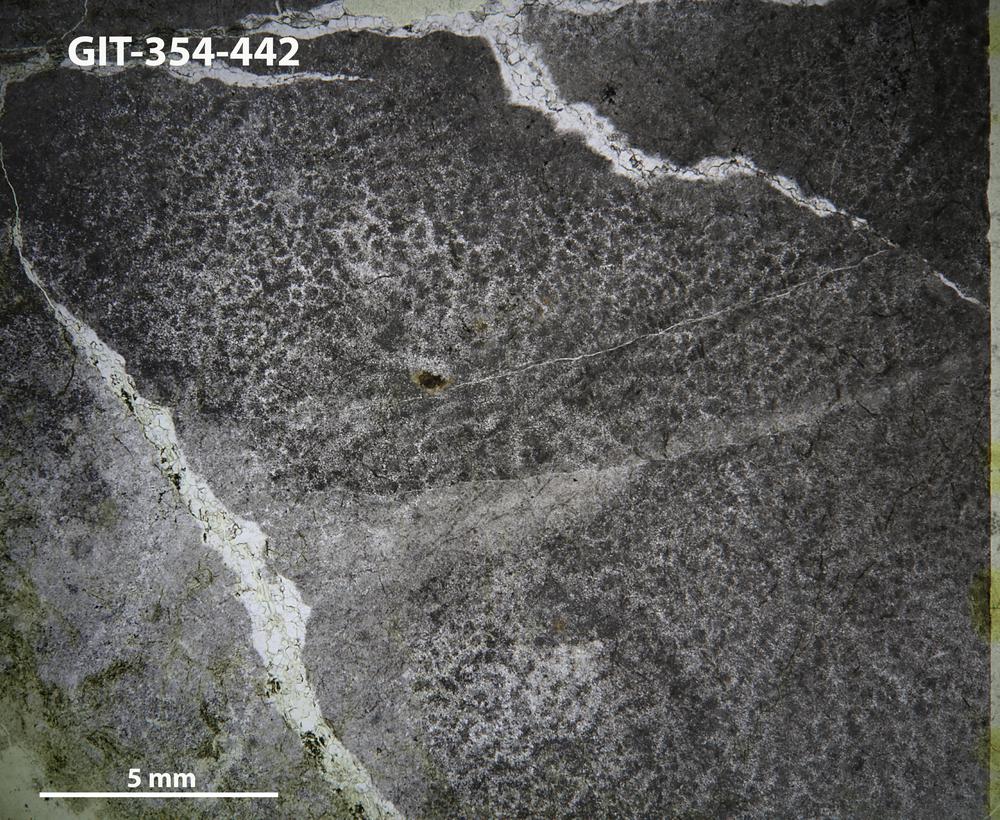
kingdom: Protozoa
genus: Pachystroma
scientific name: Pachystroma
